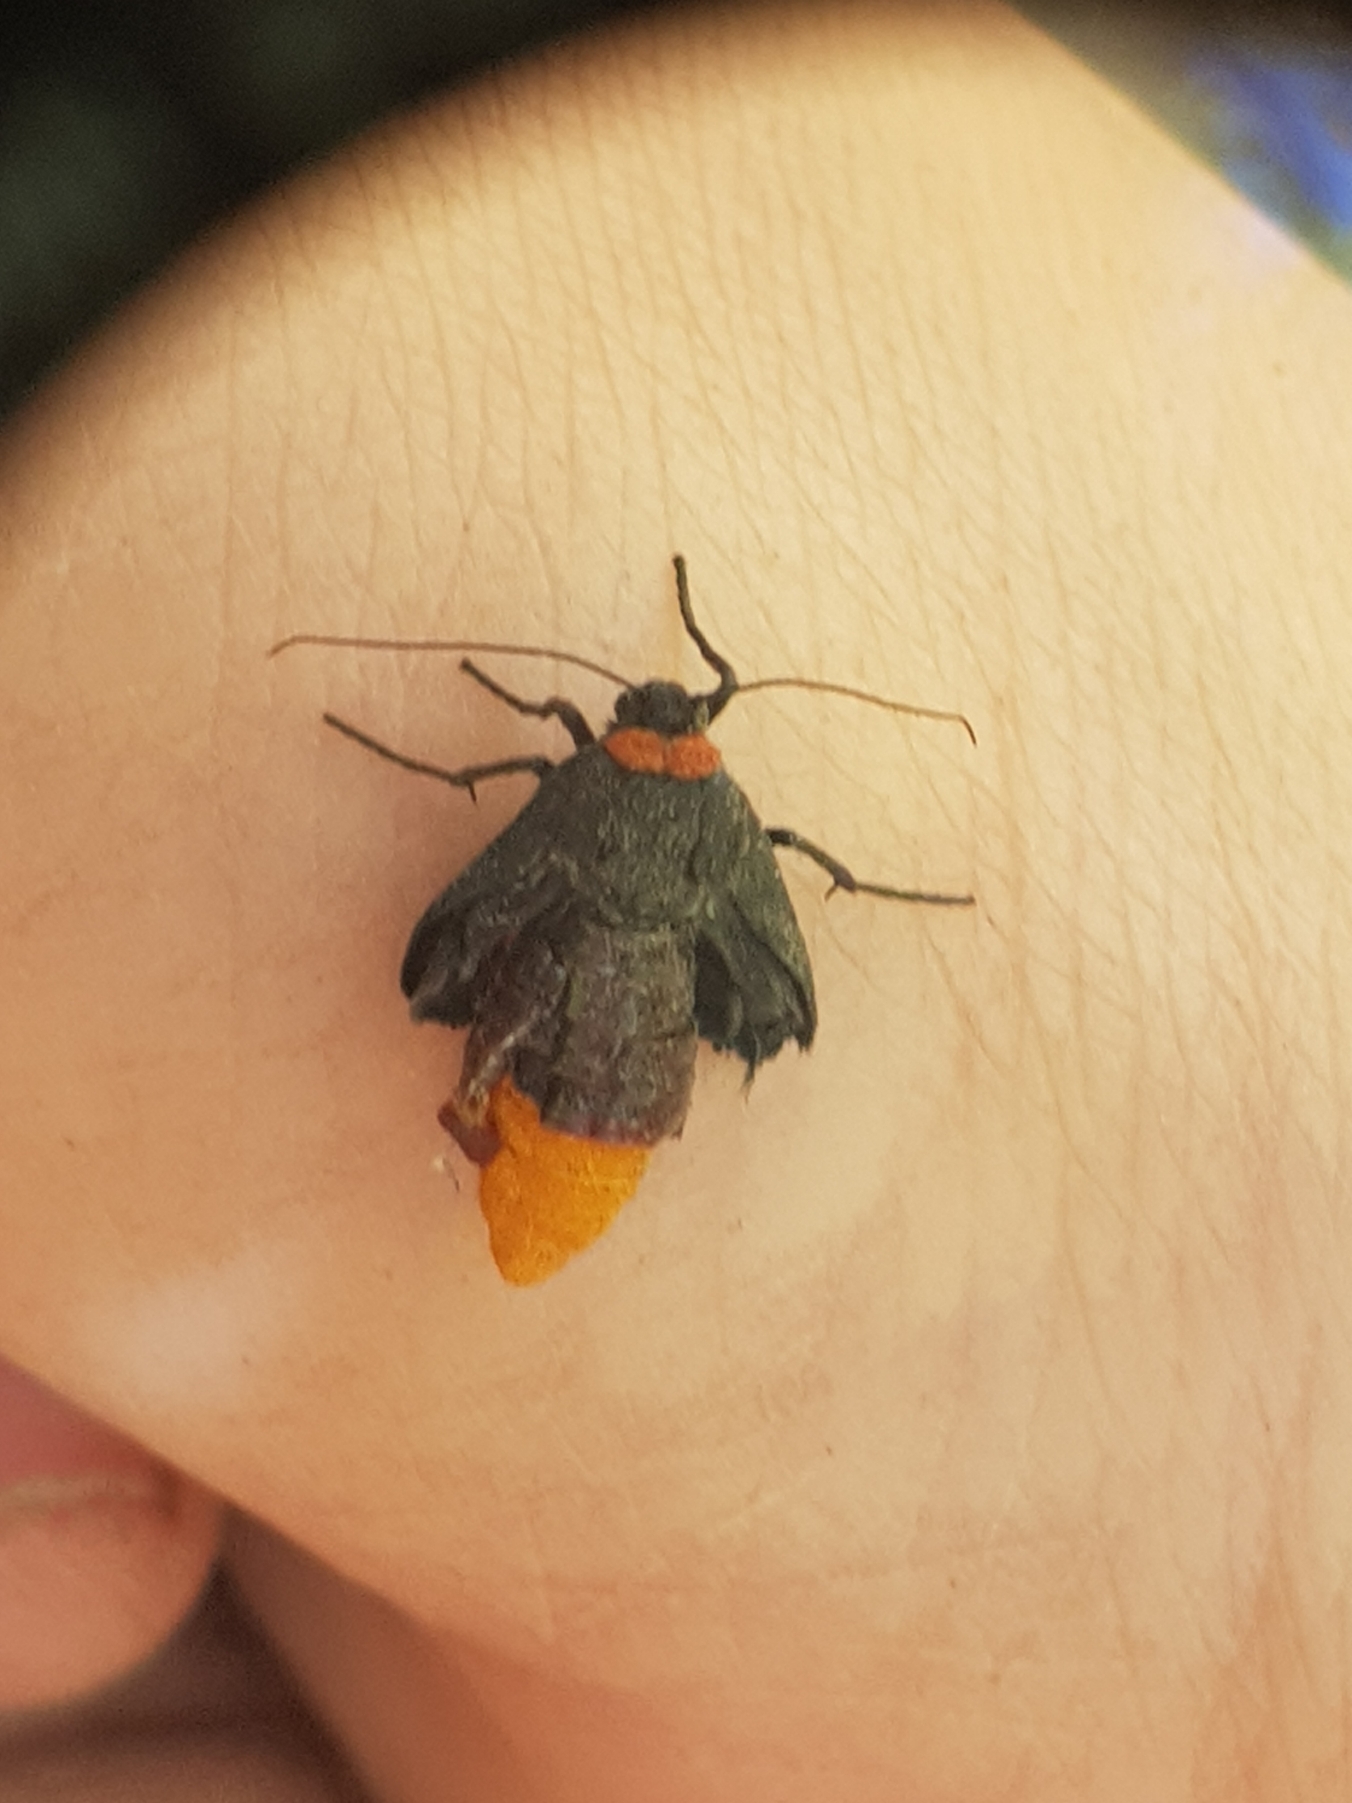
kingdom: Animalia
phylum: Arthropoda
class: Insecta
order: Lepidoptera
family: Erebidae
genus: Atolmis
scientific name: Atolmis rubricollis
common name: Blodnakke
